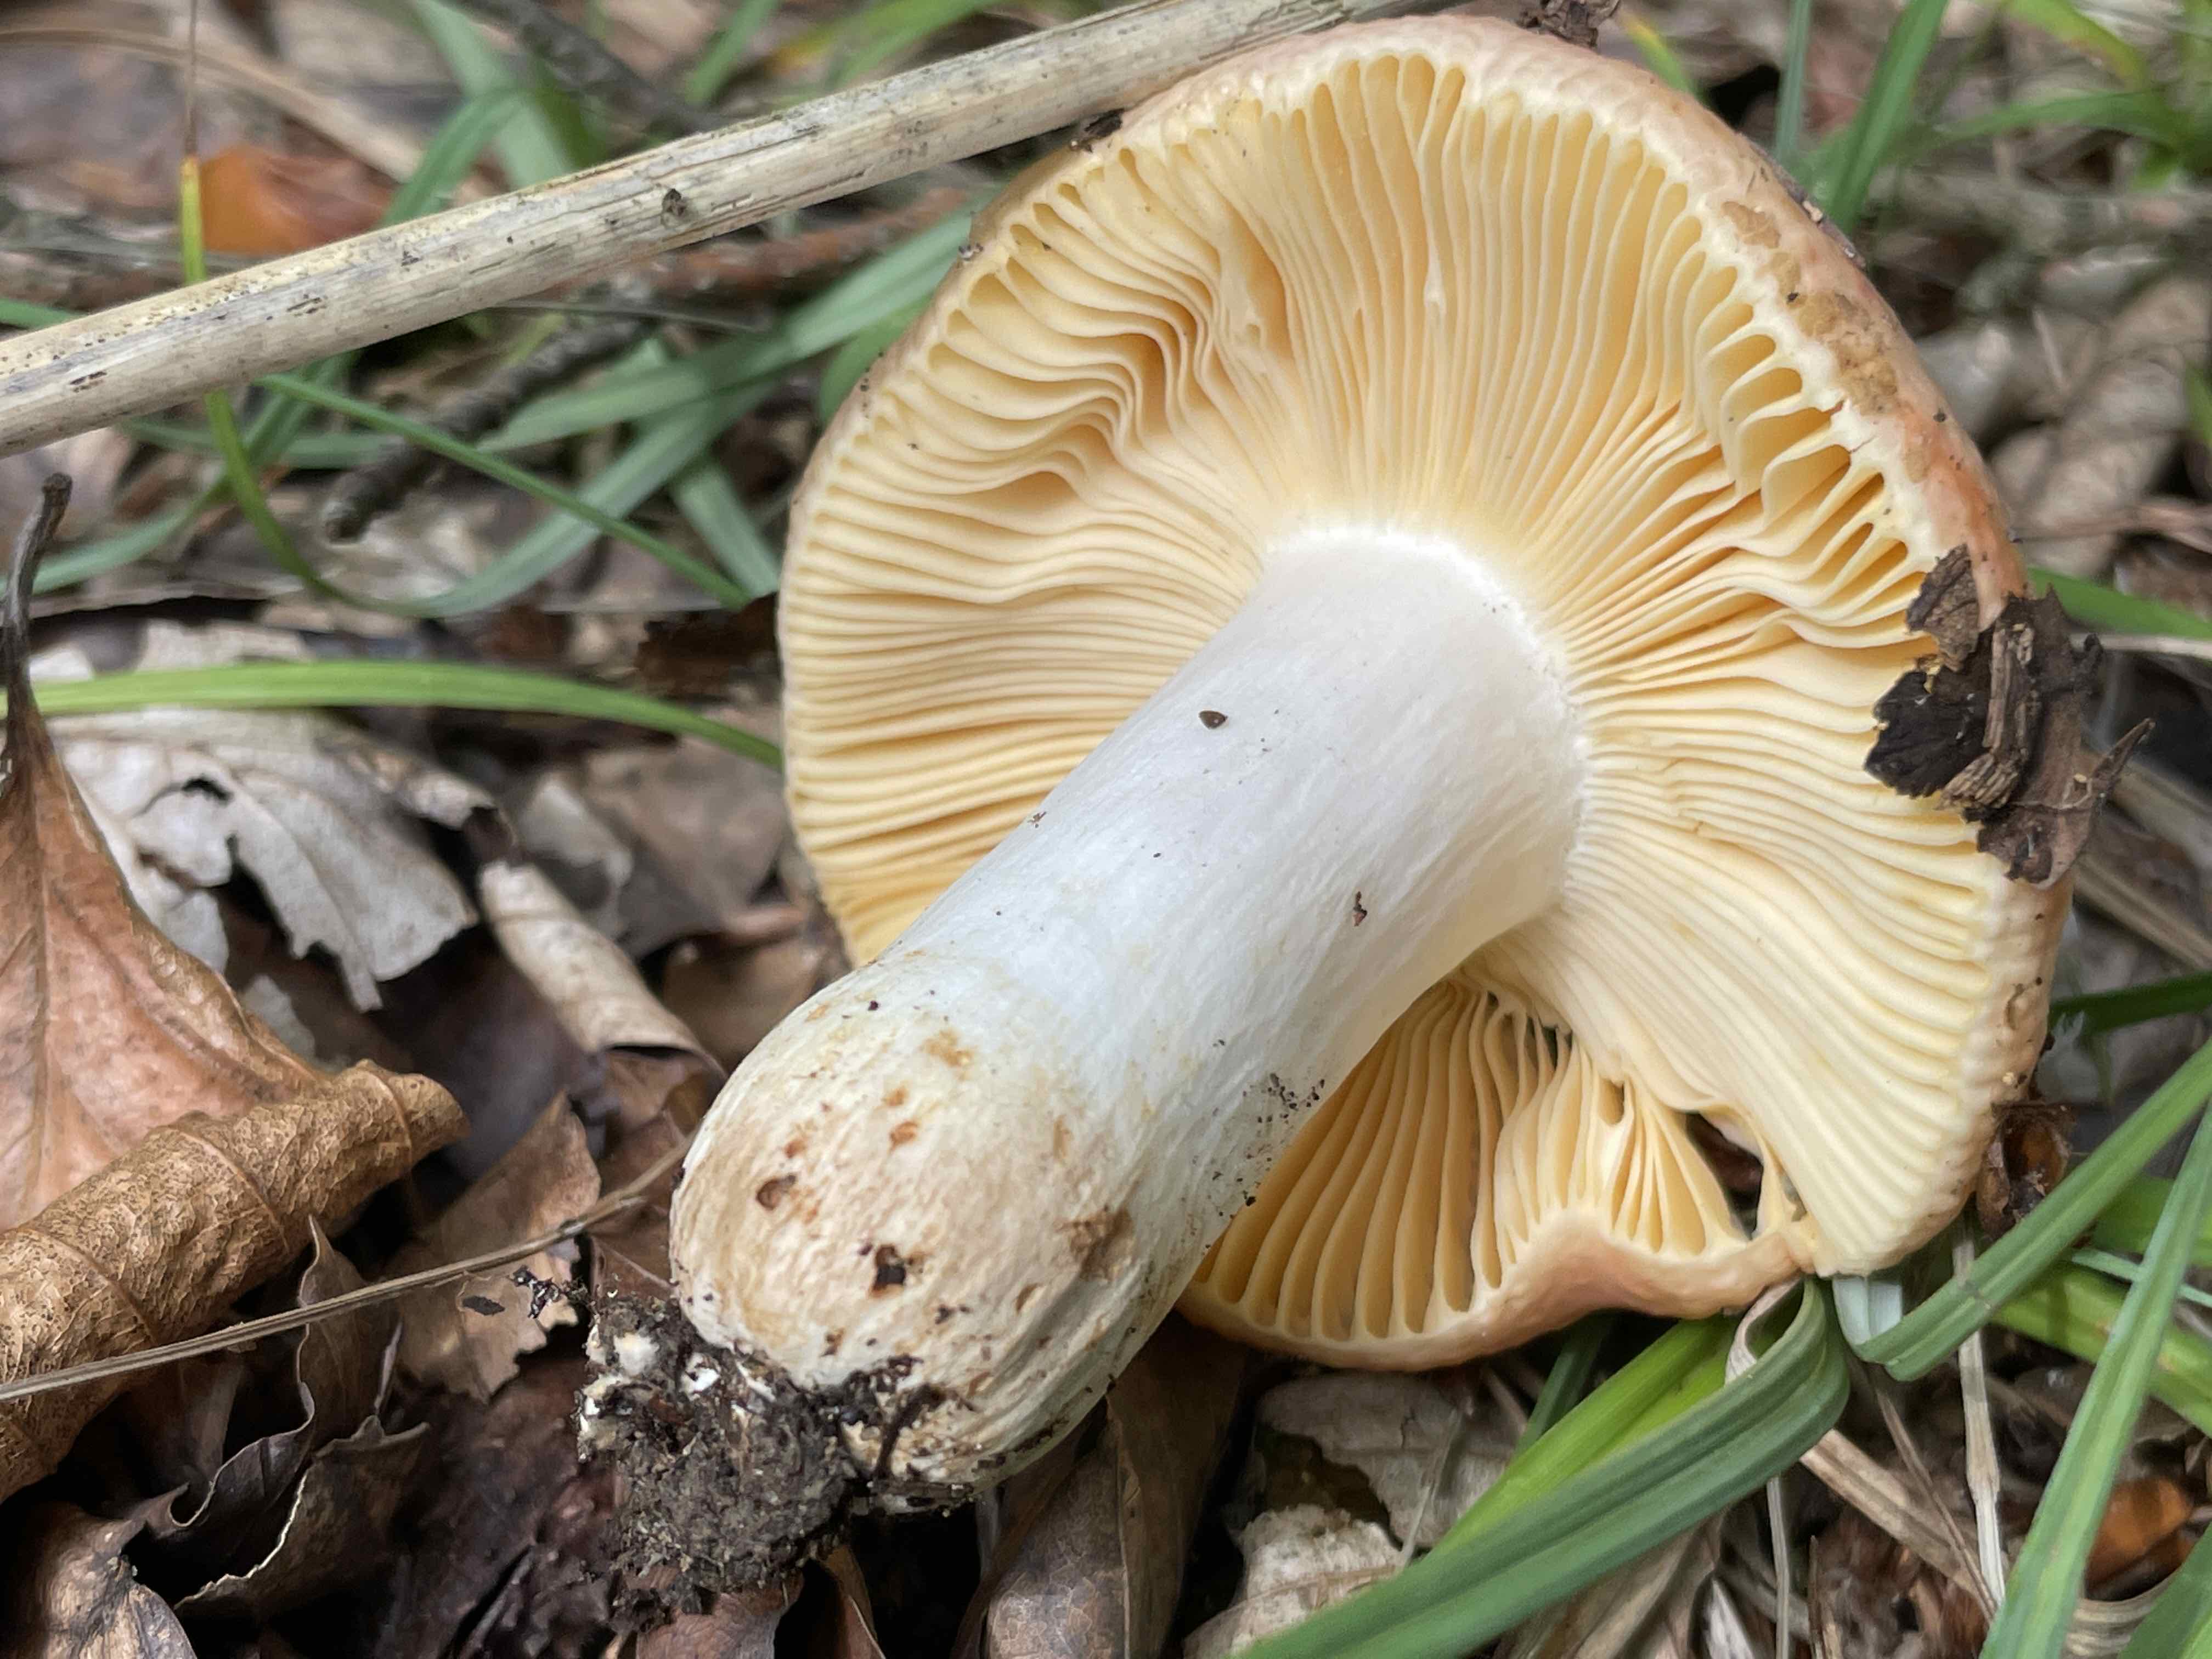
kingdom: Fungi
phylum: Basidiomycota
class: Agaricomycetes
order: Russulales
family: Russulaceae
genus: Russula
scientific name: Russula veternosa
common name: blødkødet skørhat
